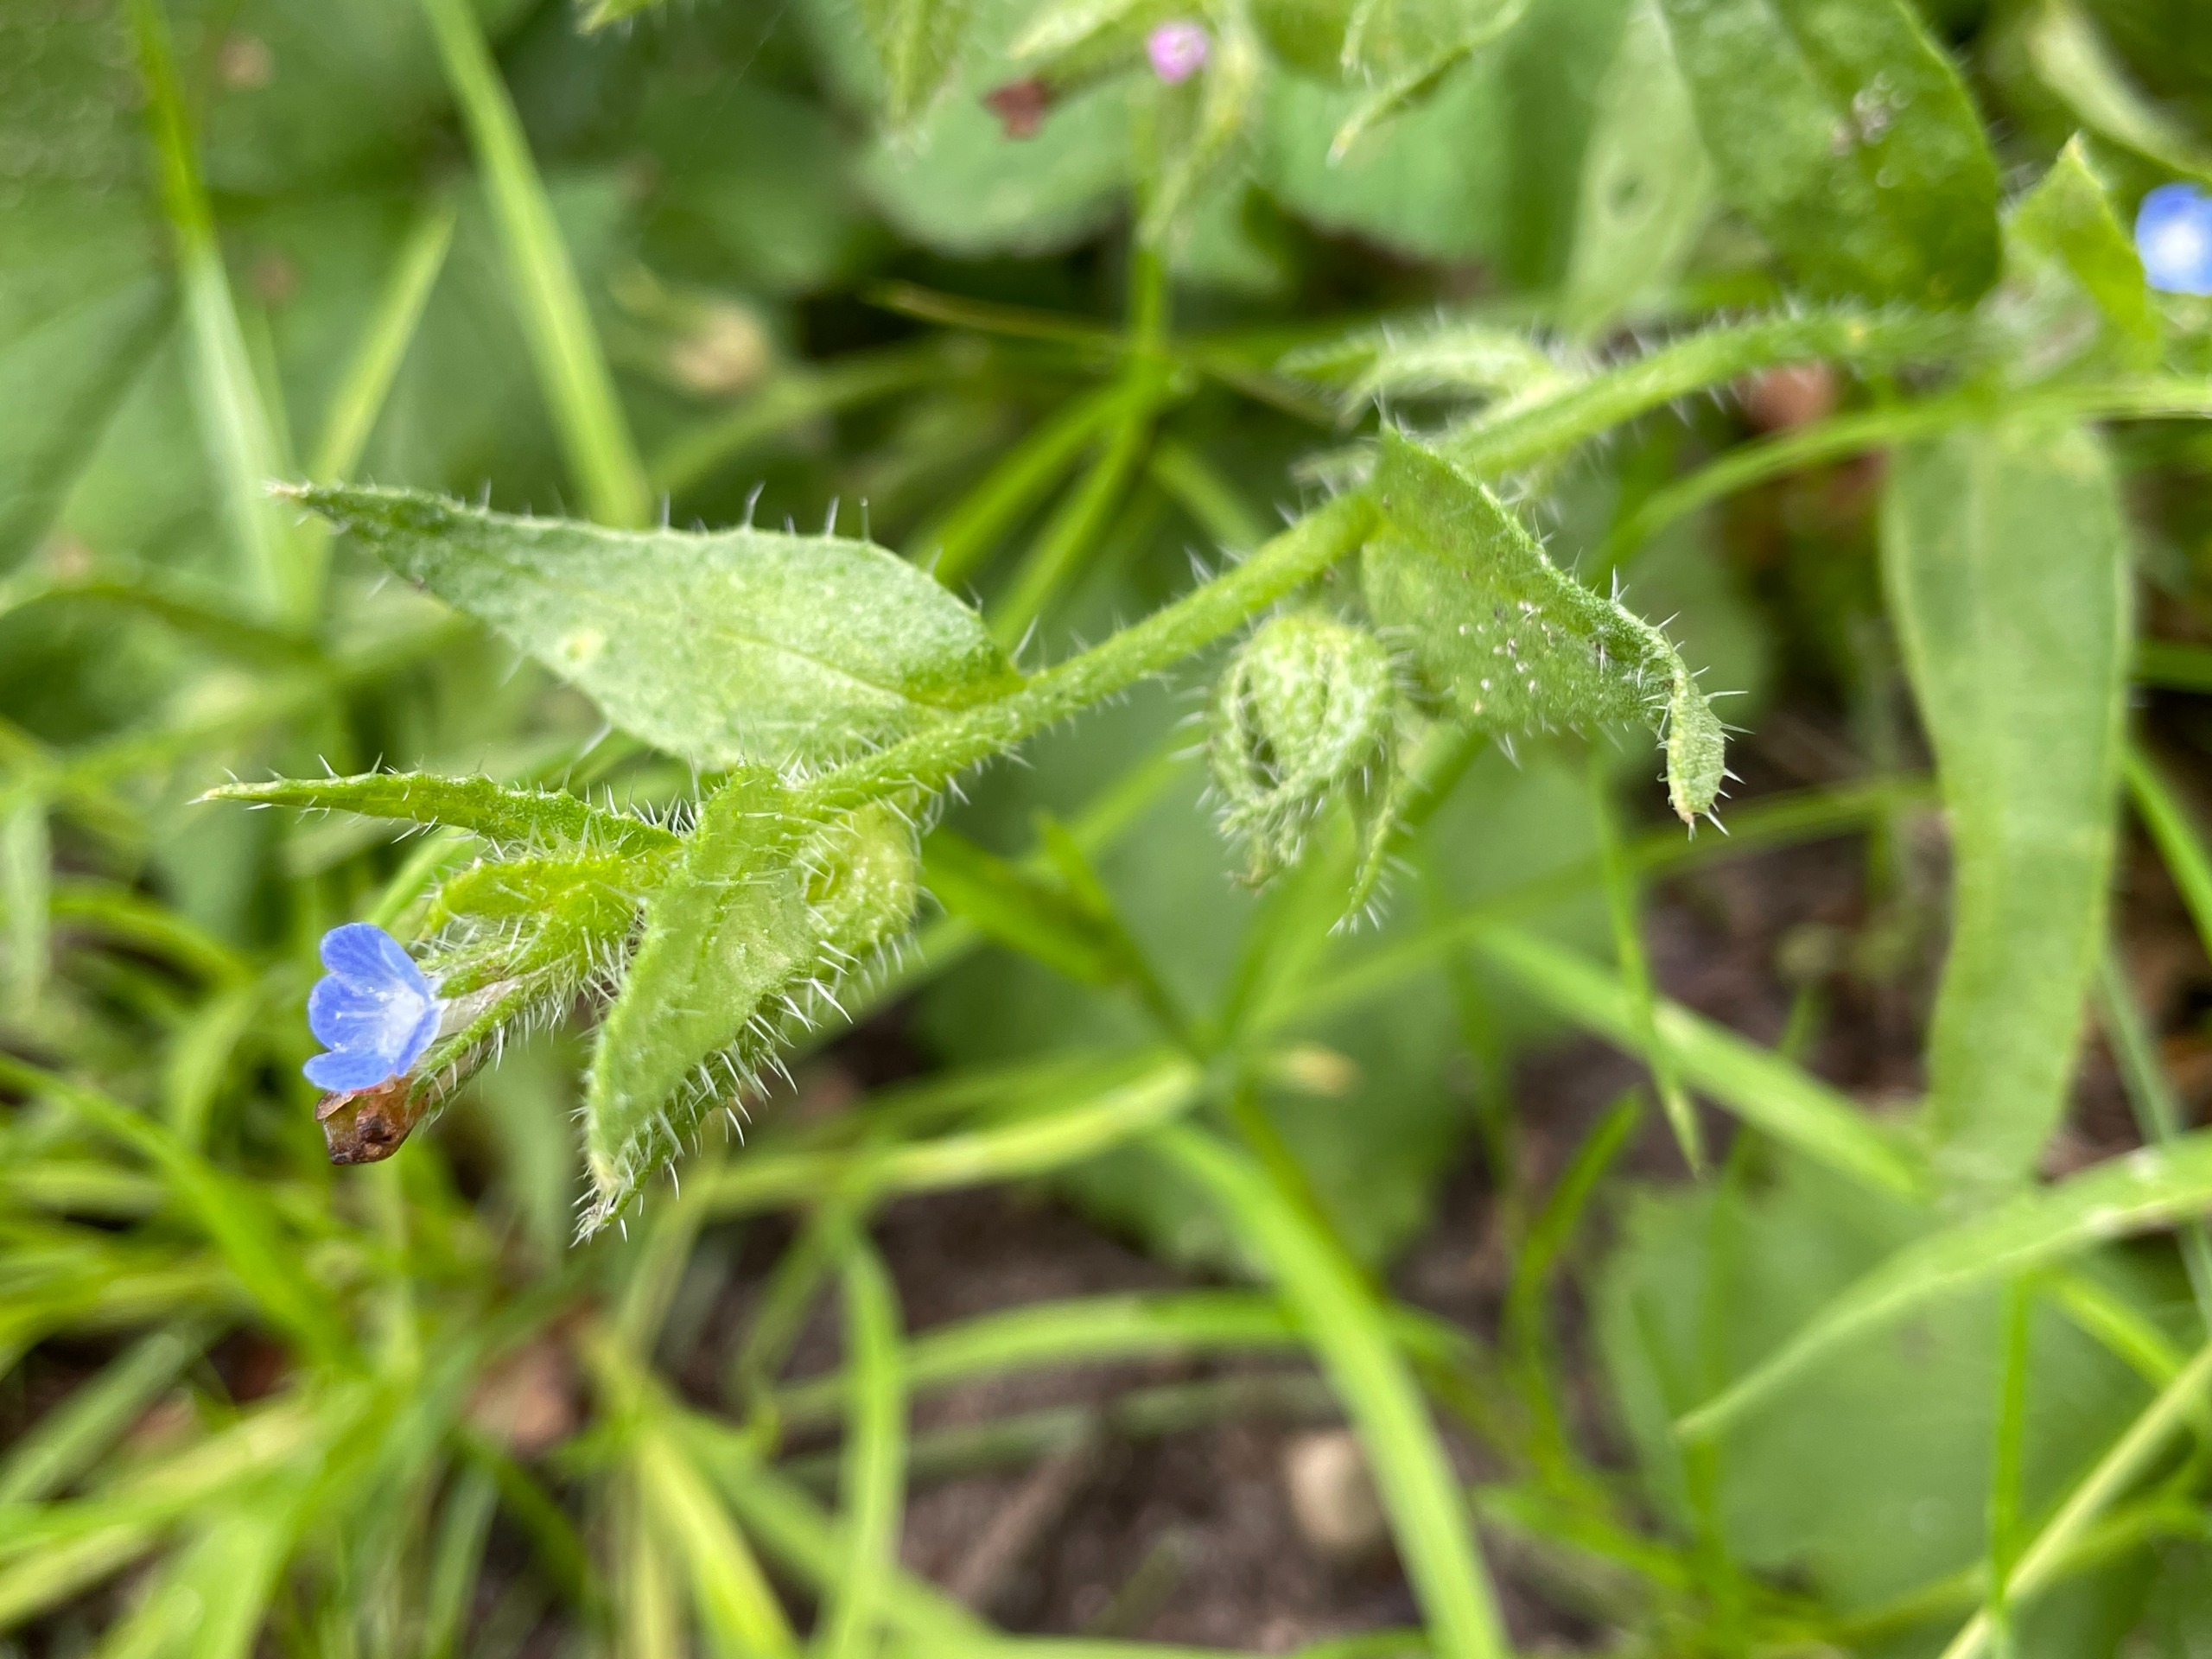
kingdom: Plantae
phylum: Tracheophyta
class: Magnoliopsida
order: Boraginales
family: Boraginaceae
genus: Lycopsis
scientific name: Lycopsis arvensis
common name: Krumhals
